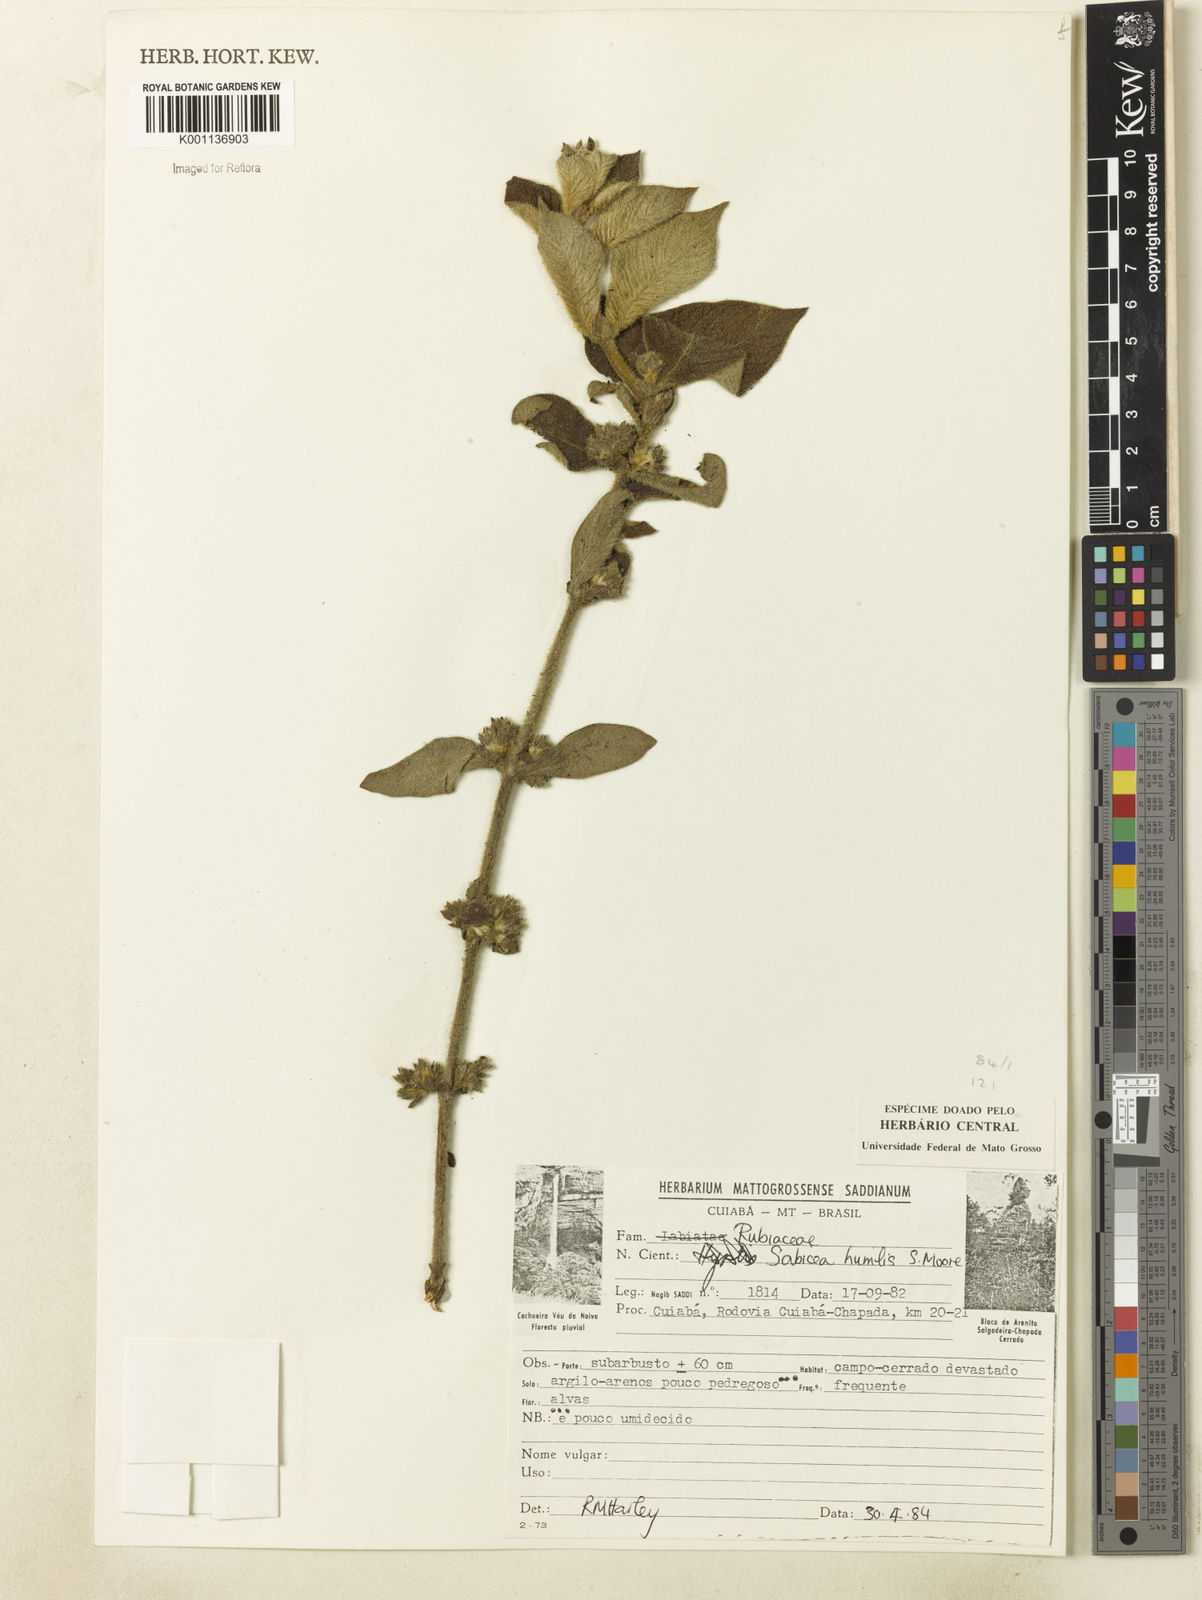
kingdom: Plantae
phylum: Tracheophyta
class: Magnoliopsida
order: Gentianales
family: Rubiaceae
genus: Sabicea
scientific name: Sabicea humilis
